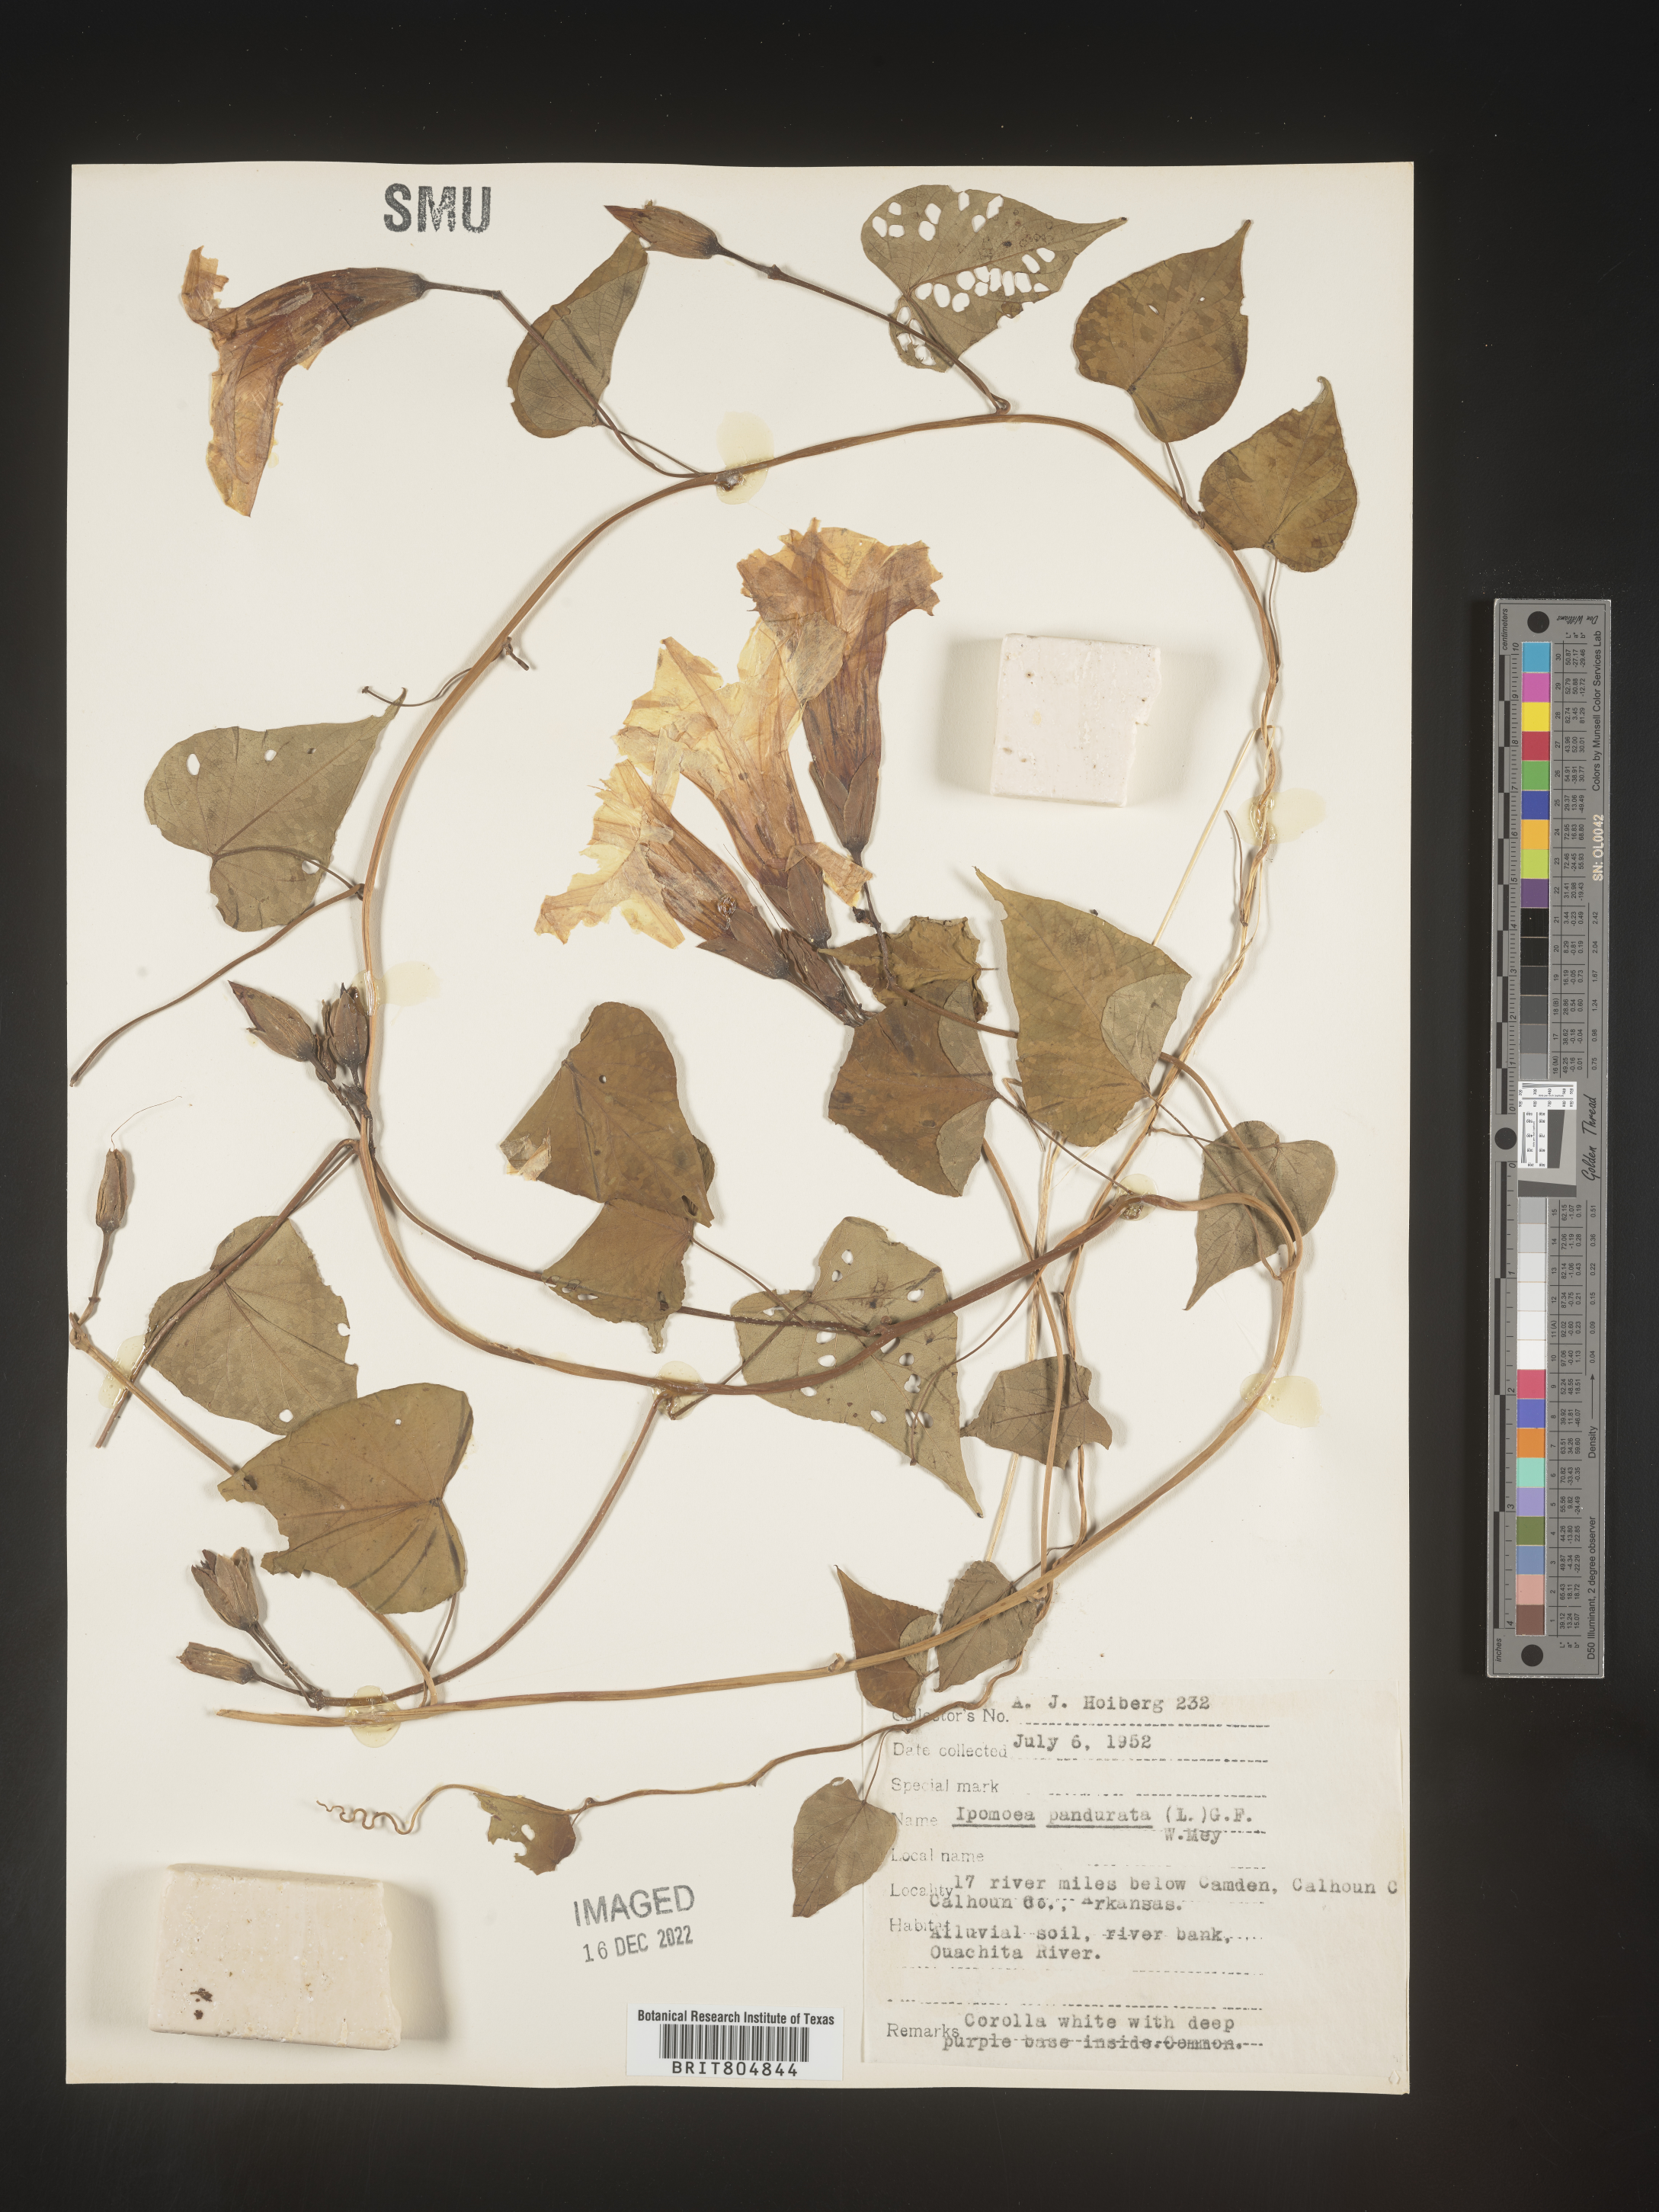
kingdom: Plantae
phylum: Tracheophyta
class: Magnoliopsida
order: Solanales
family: Convolvulaceae
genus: Ipomoea
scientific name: Ipomoea pandurata
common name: Man-of-the-earth
